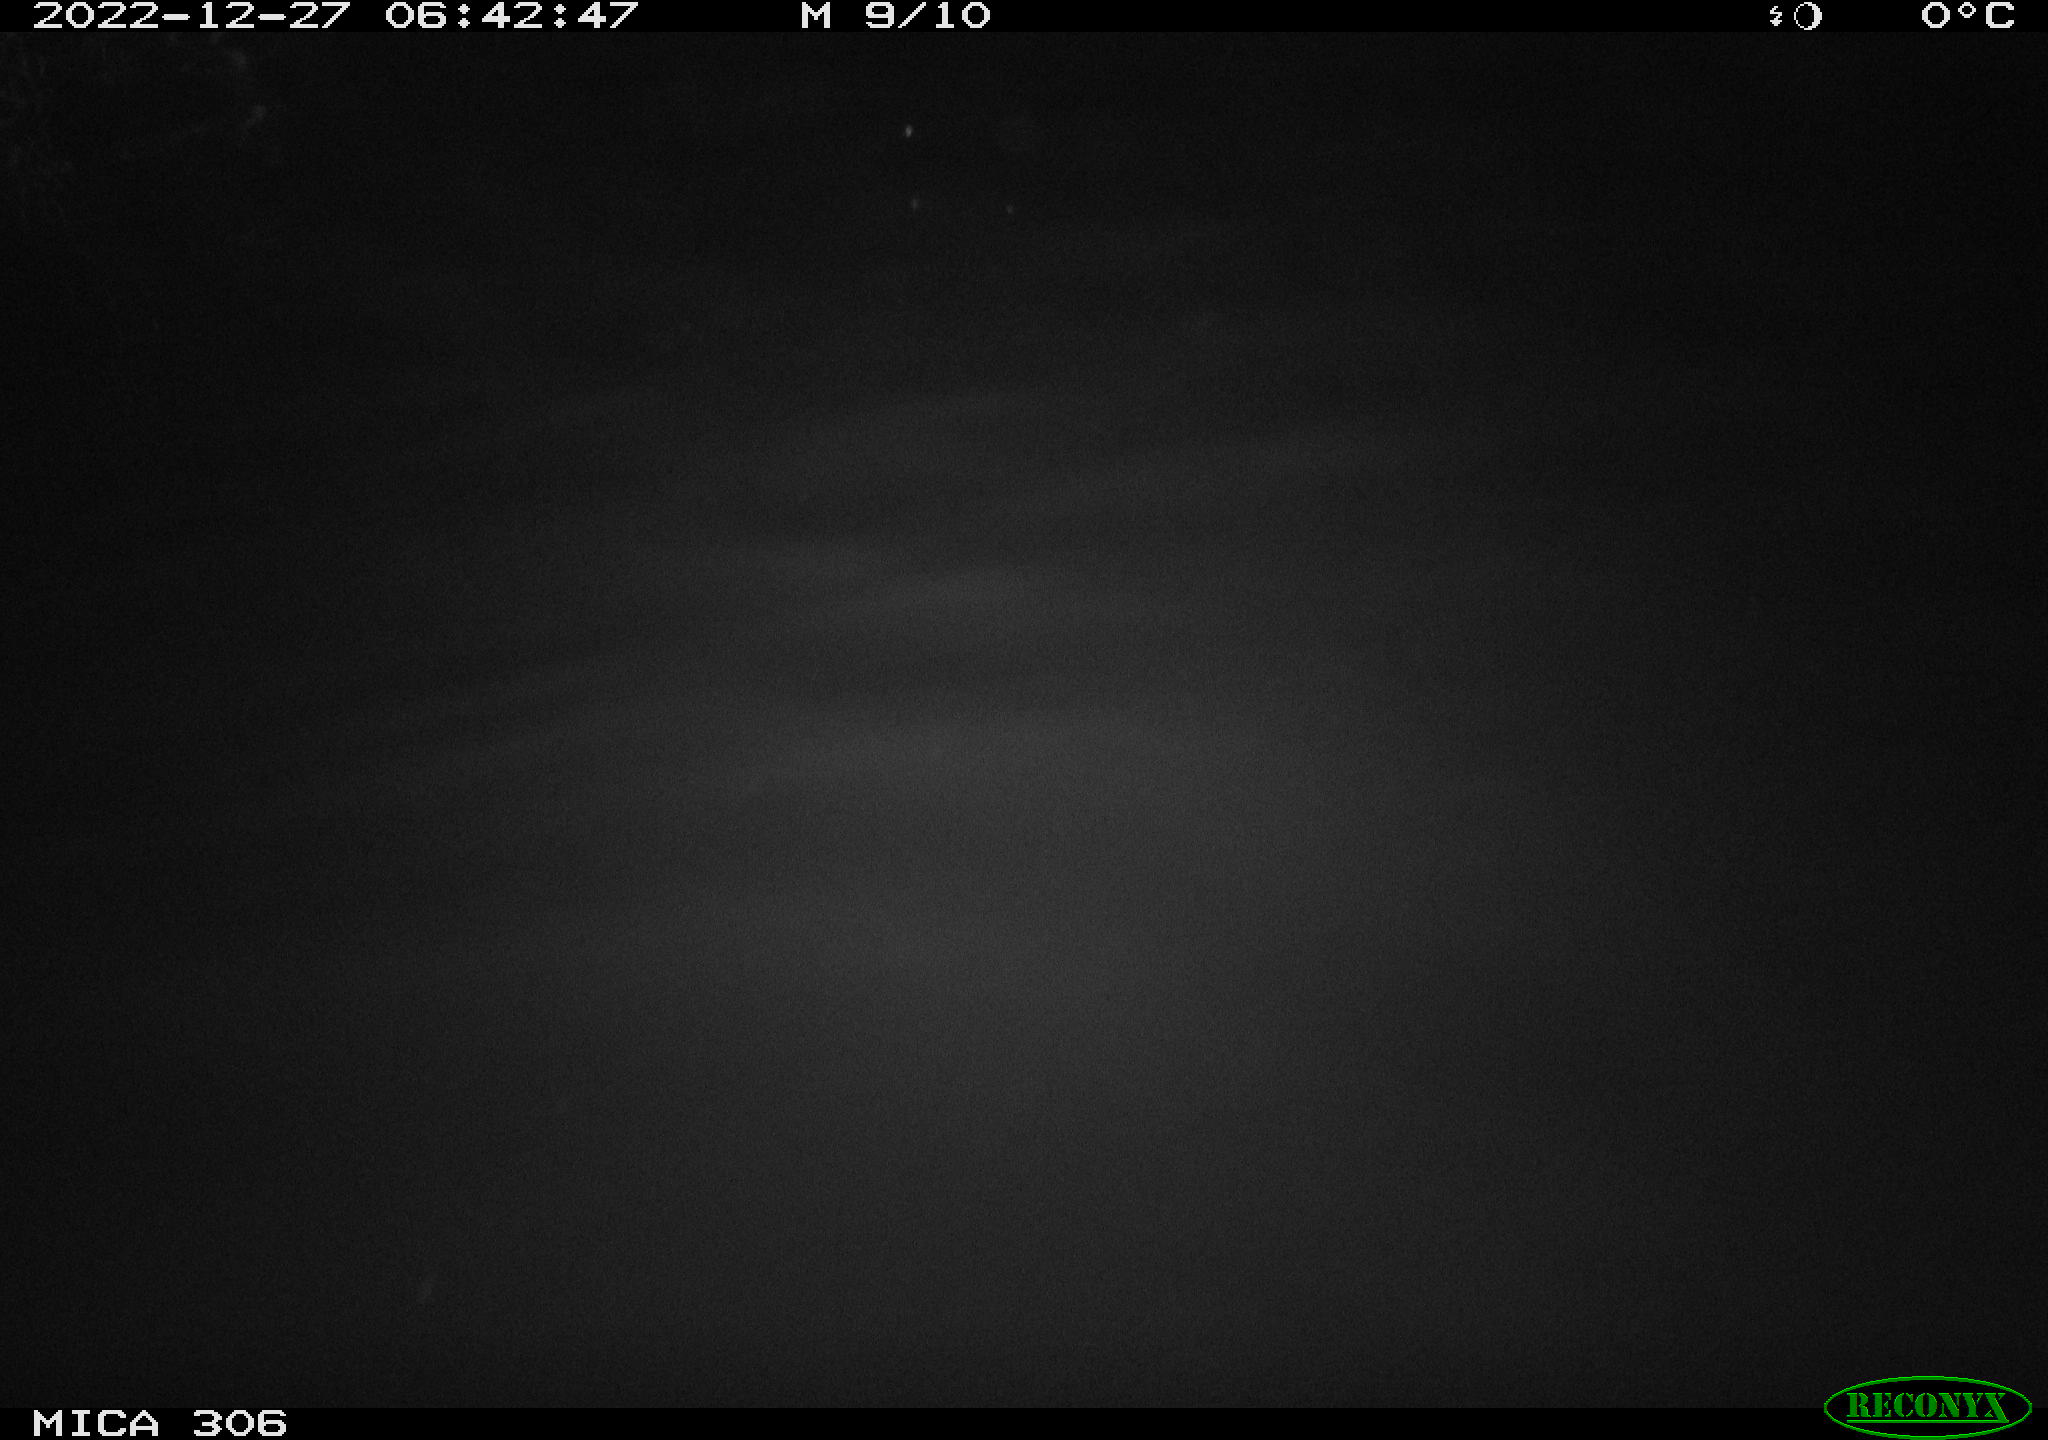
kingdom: Animalia
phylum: Chordata
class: Mammalia
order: Rodentia
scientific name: Rodentia
